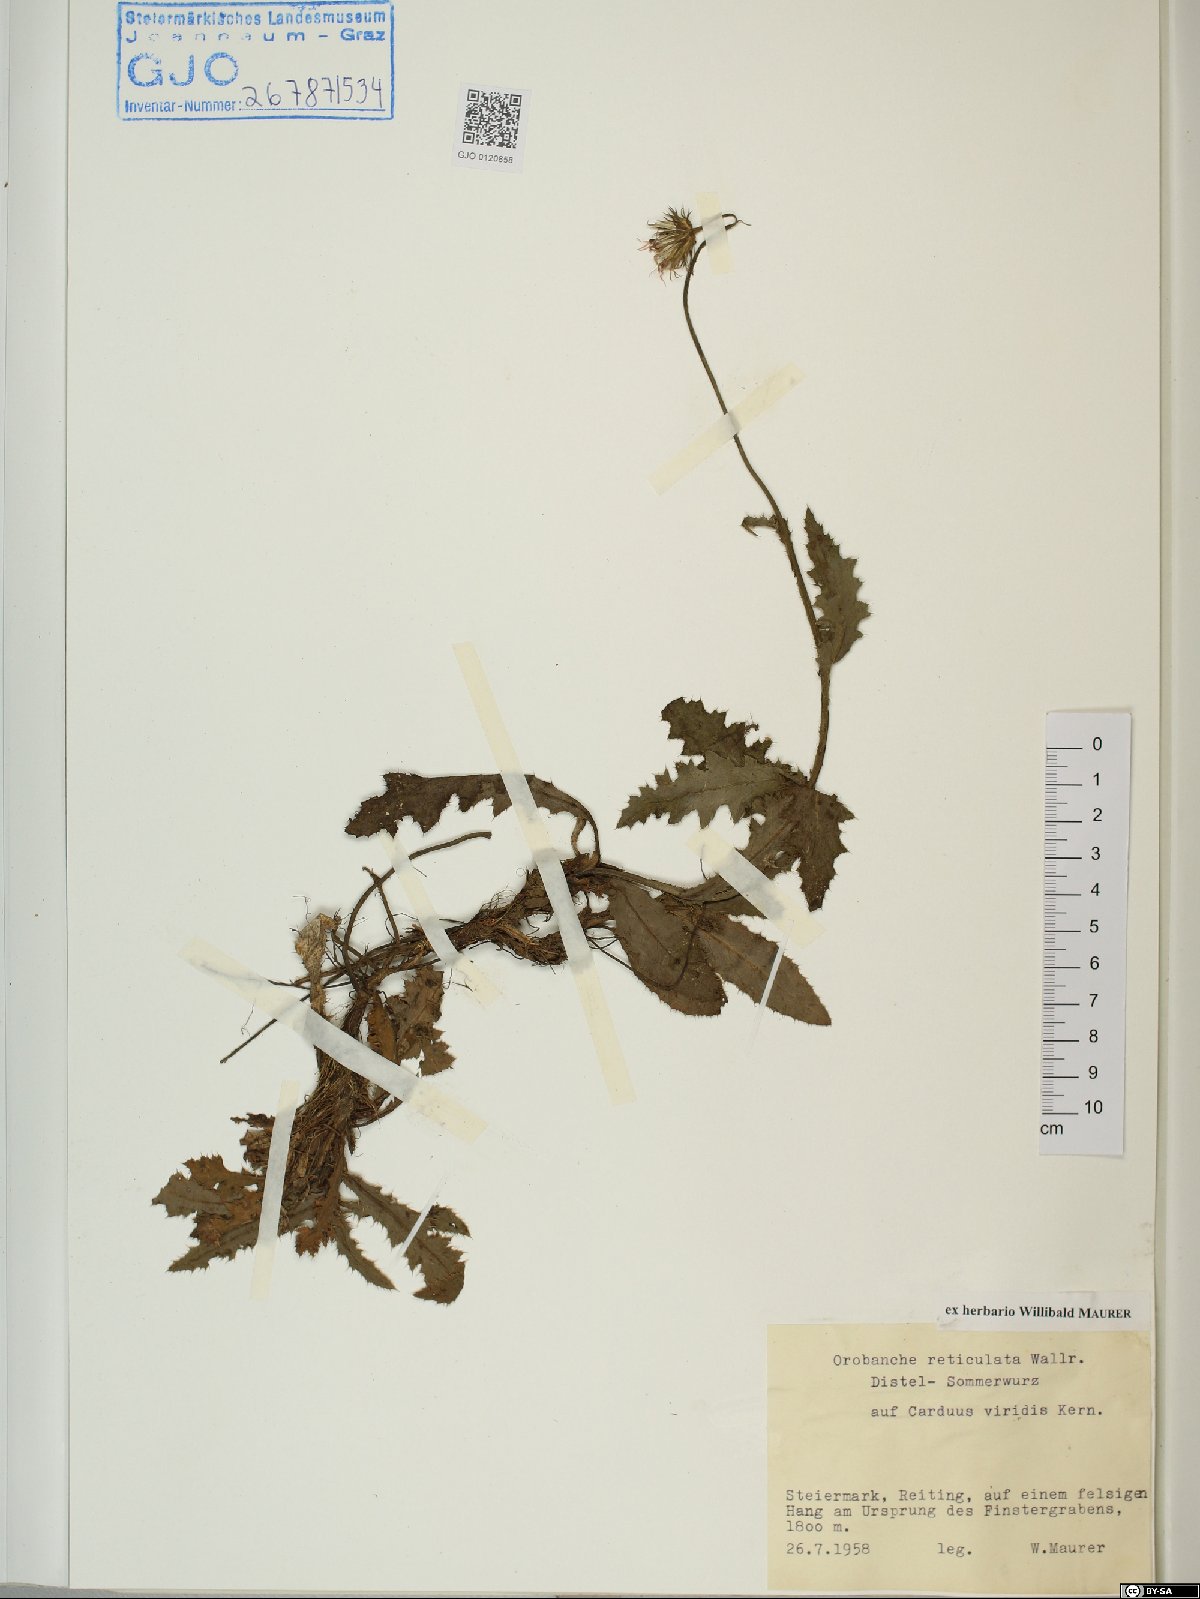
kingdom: Plantae
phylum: Tracheophyta
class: Magnoliopsida
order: Lamiales
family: Orobanchaceae
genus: Orobanche
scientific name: Orobanche reticulata
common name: Thistle broomrape
